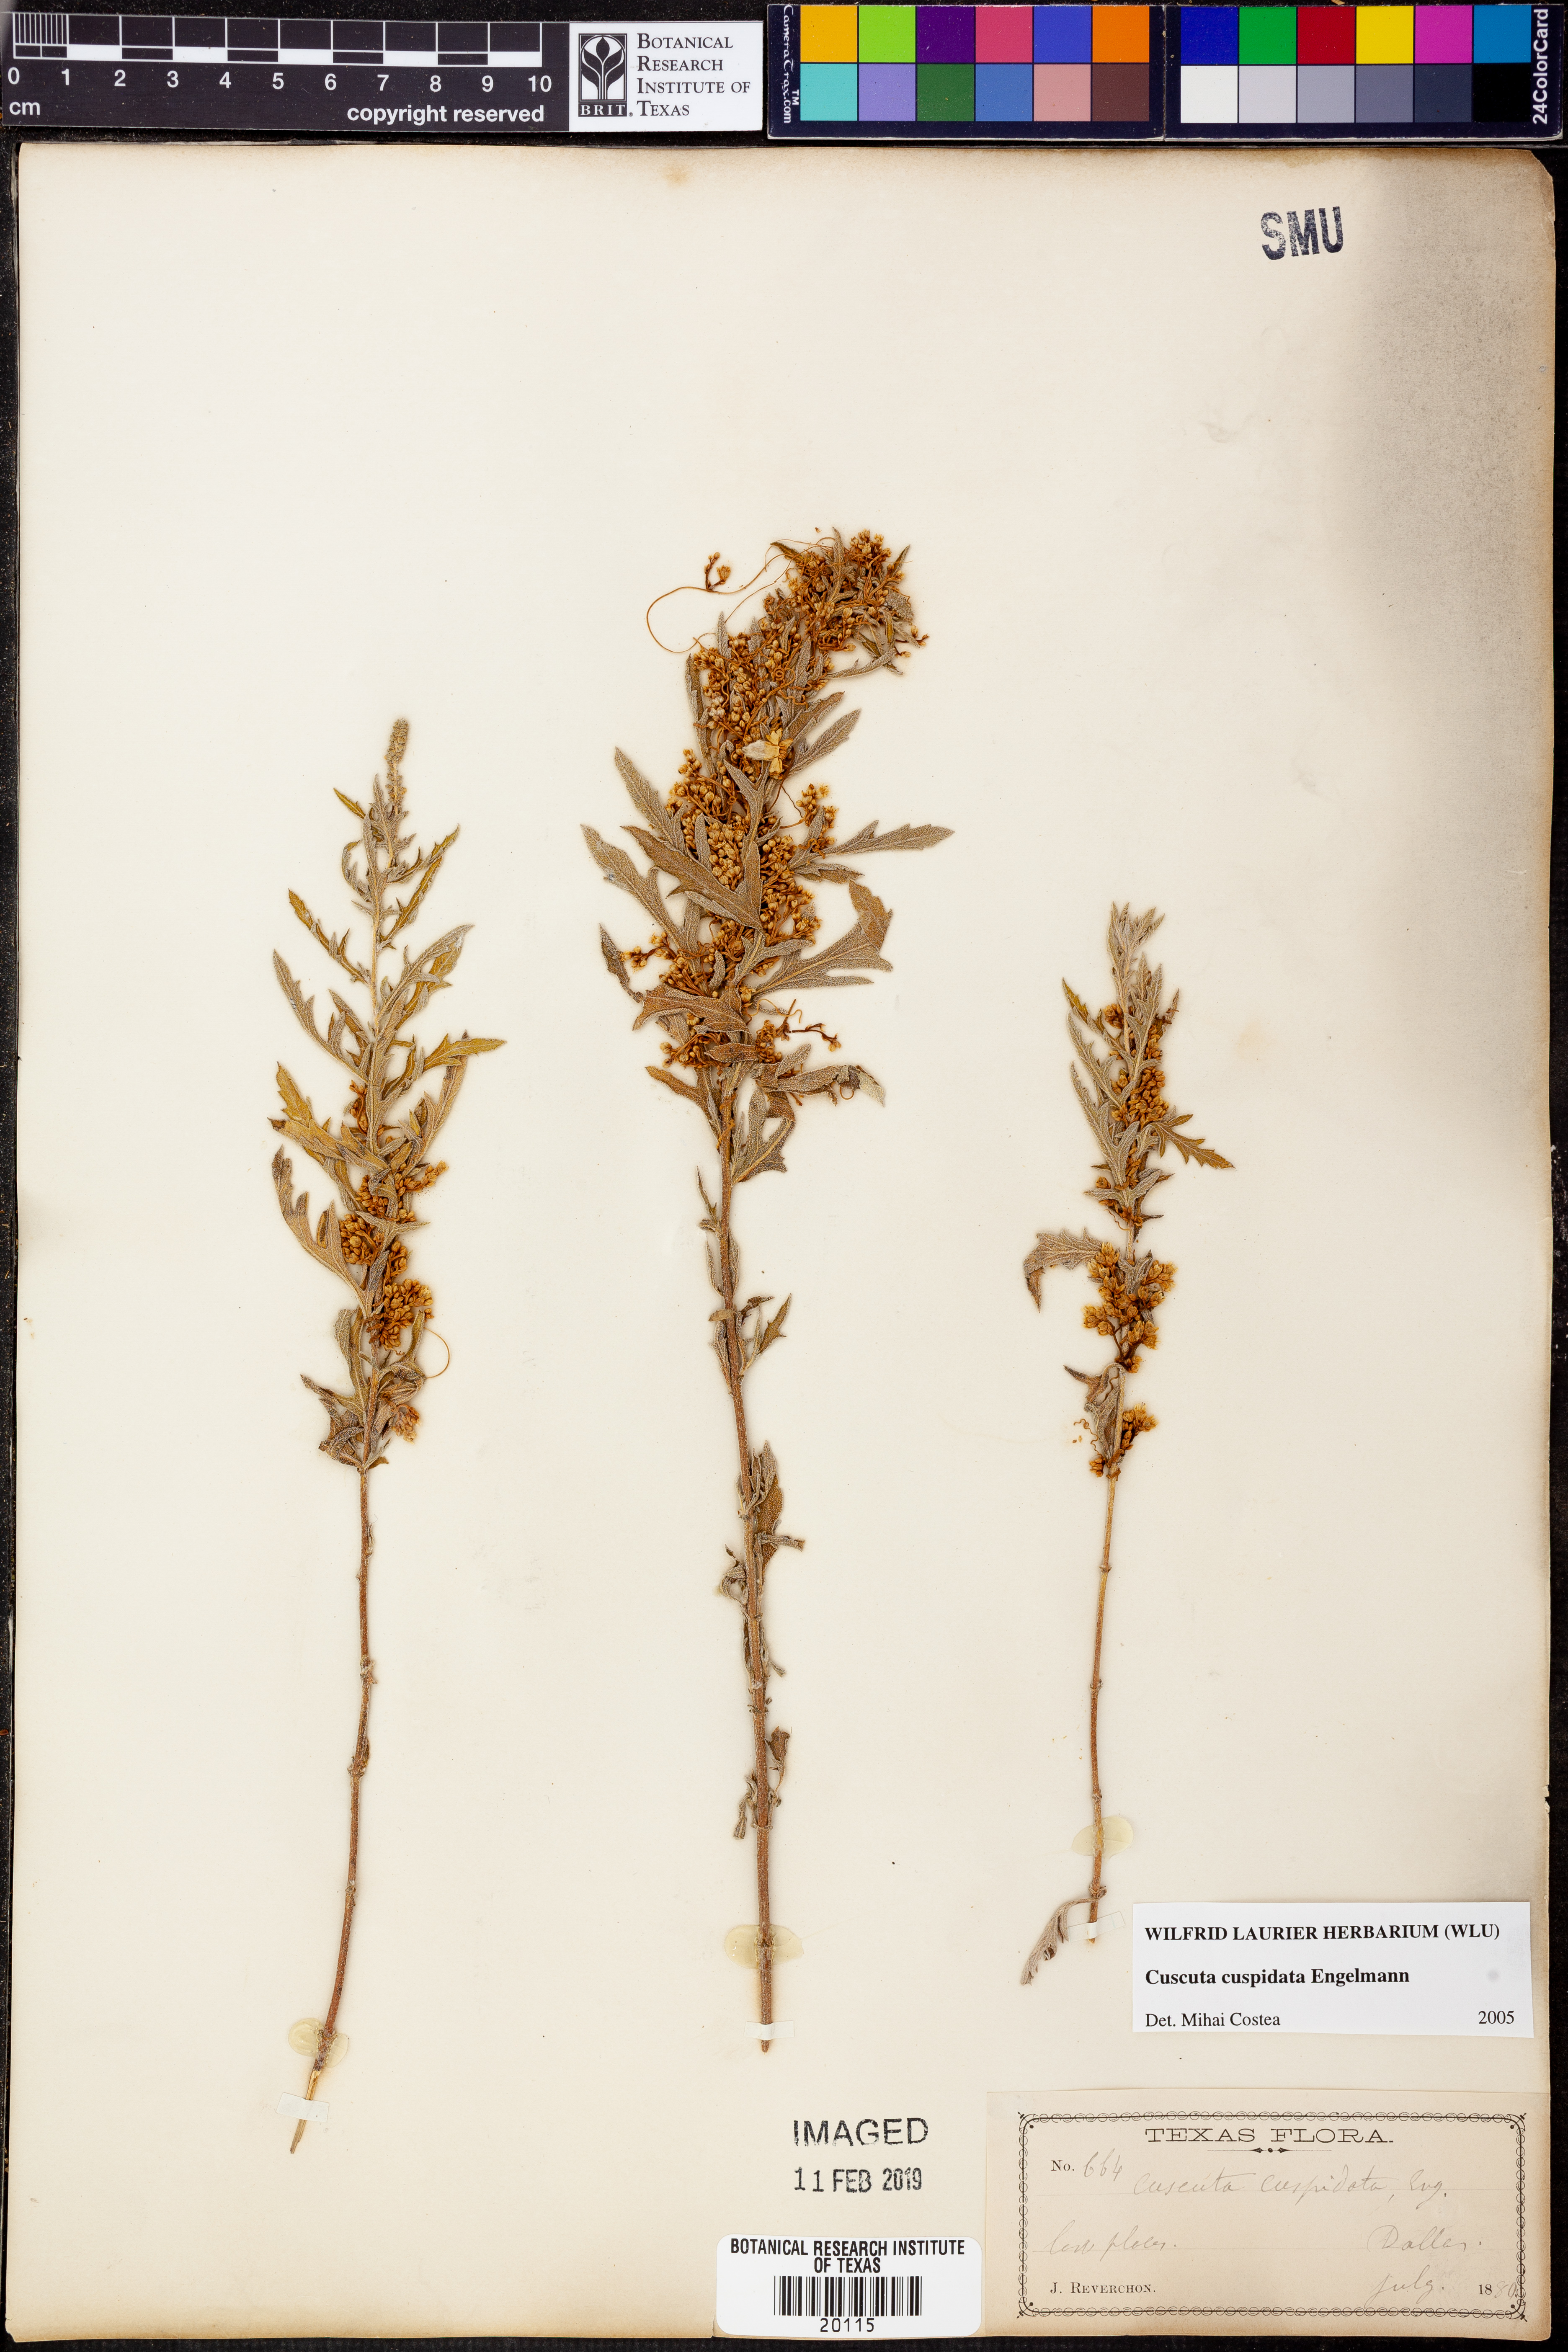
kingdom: Plantae
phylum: Tracheophyta
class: Magnoliopsida
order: Solanales
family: Convolvulaceae
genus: Cuscuta
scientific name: Cuscuta cuspidata
